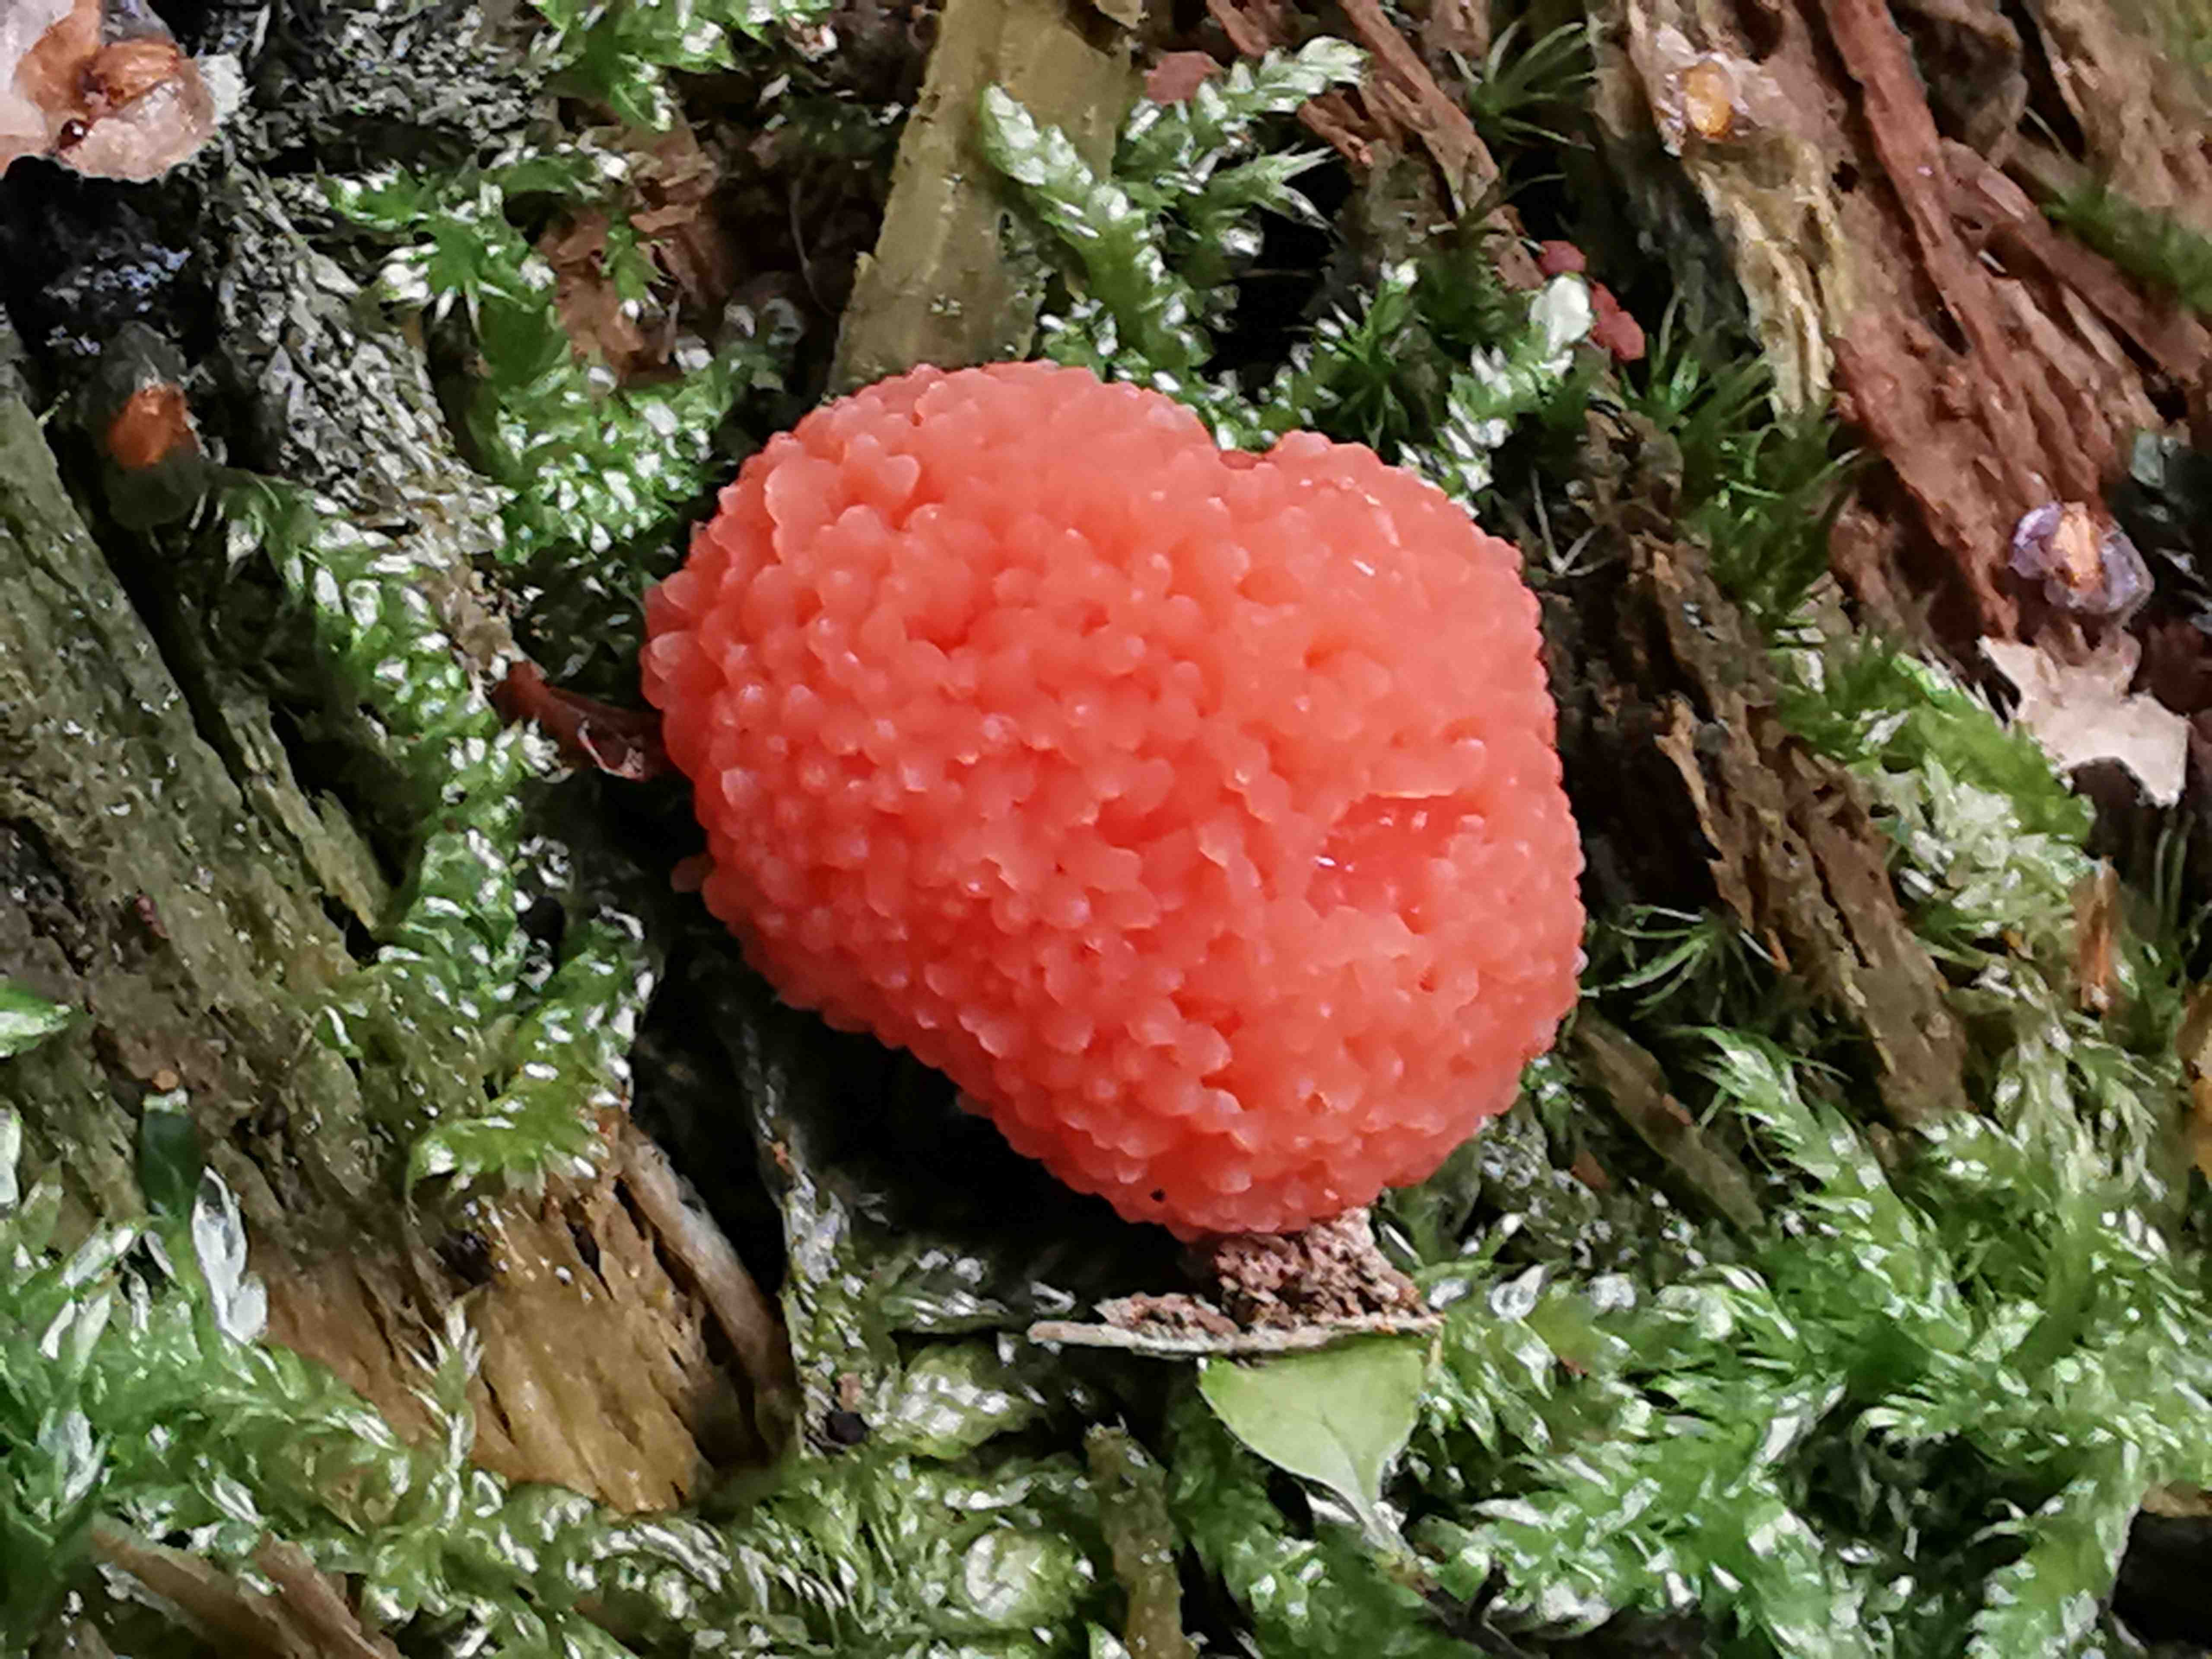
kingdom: Protozoa
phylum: Mycetozoa
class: Myxomycetes
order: Cribrariales
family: Tubiferaceae
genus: Tubifera
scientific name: Tubifera ferruginosa
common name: kanel-støvrør
